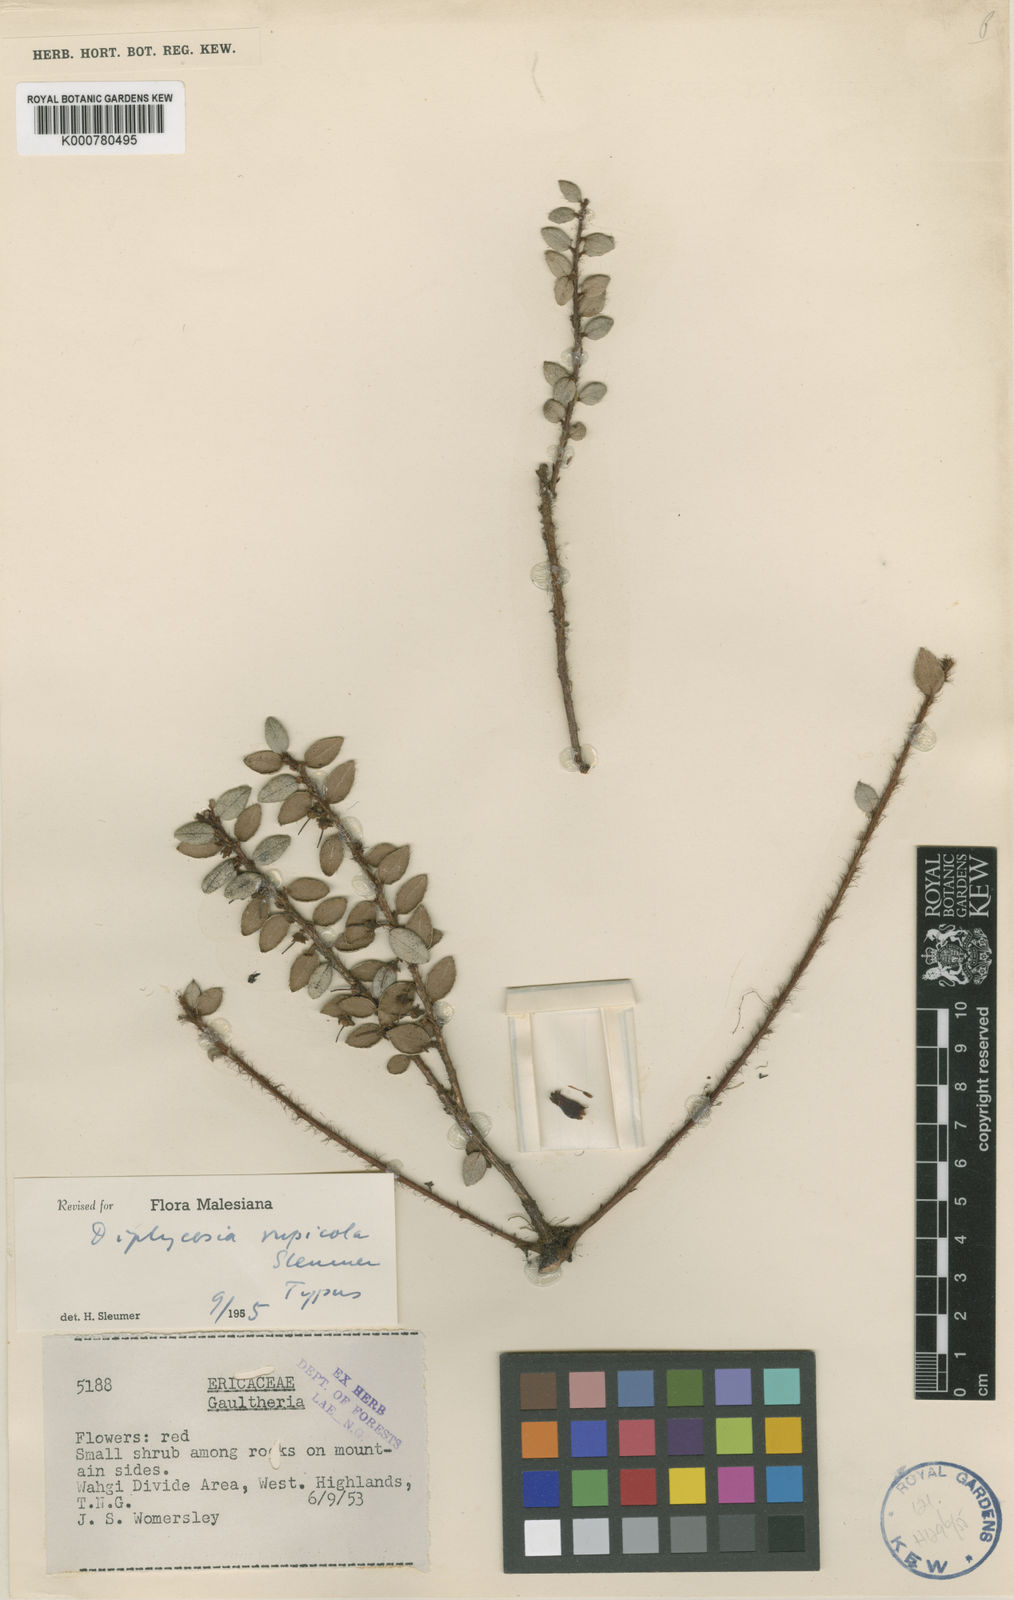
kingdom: Plantae
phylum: Tracheophyta
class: Magnoliopsida
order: Ericales
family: Ericaceae
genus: Gaultheria
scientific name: Gaultheria rupicola
